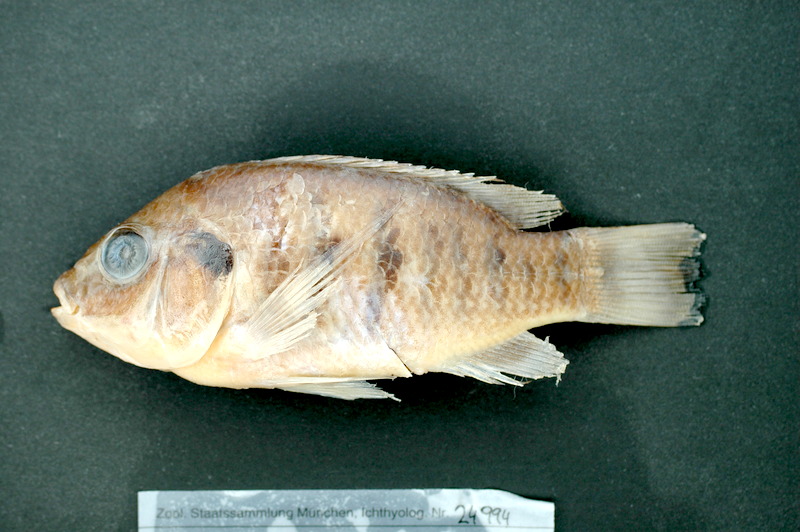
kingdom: Animalia
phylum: Chordata
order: Perciformes
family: Cichlidae
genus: Sarotherodon
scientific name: Sarotherodon galilaeus
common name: Mango tilapia
